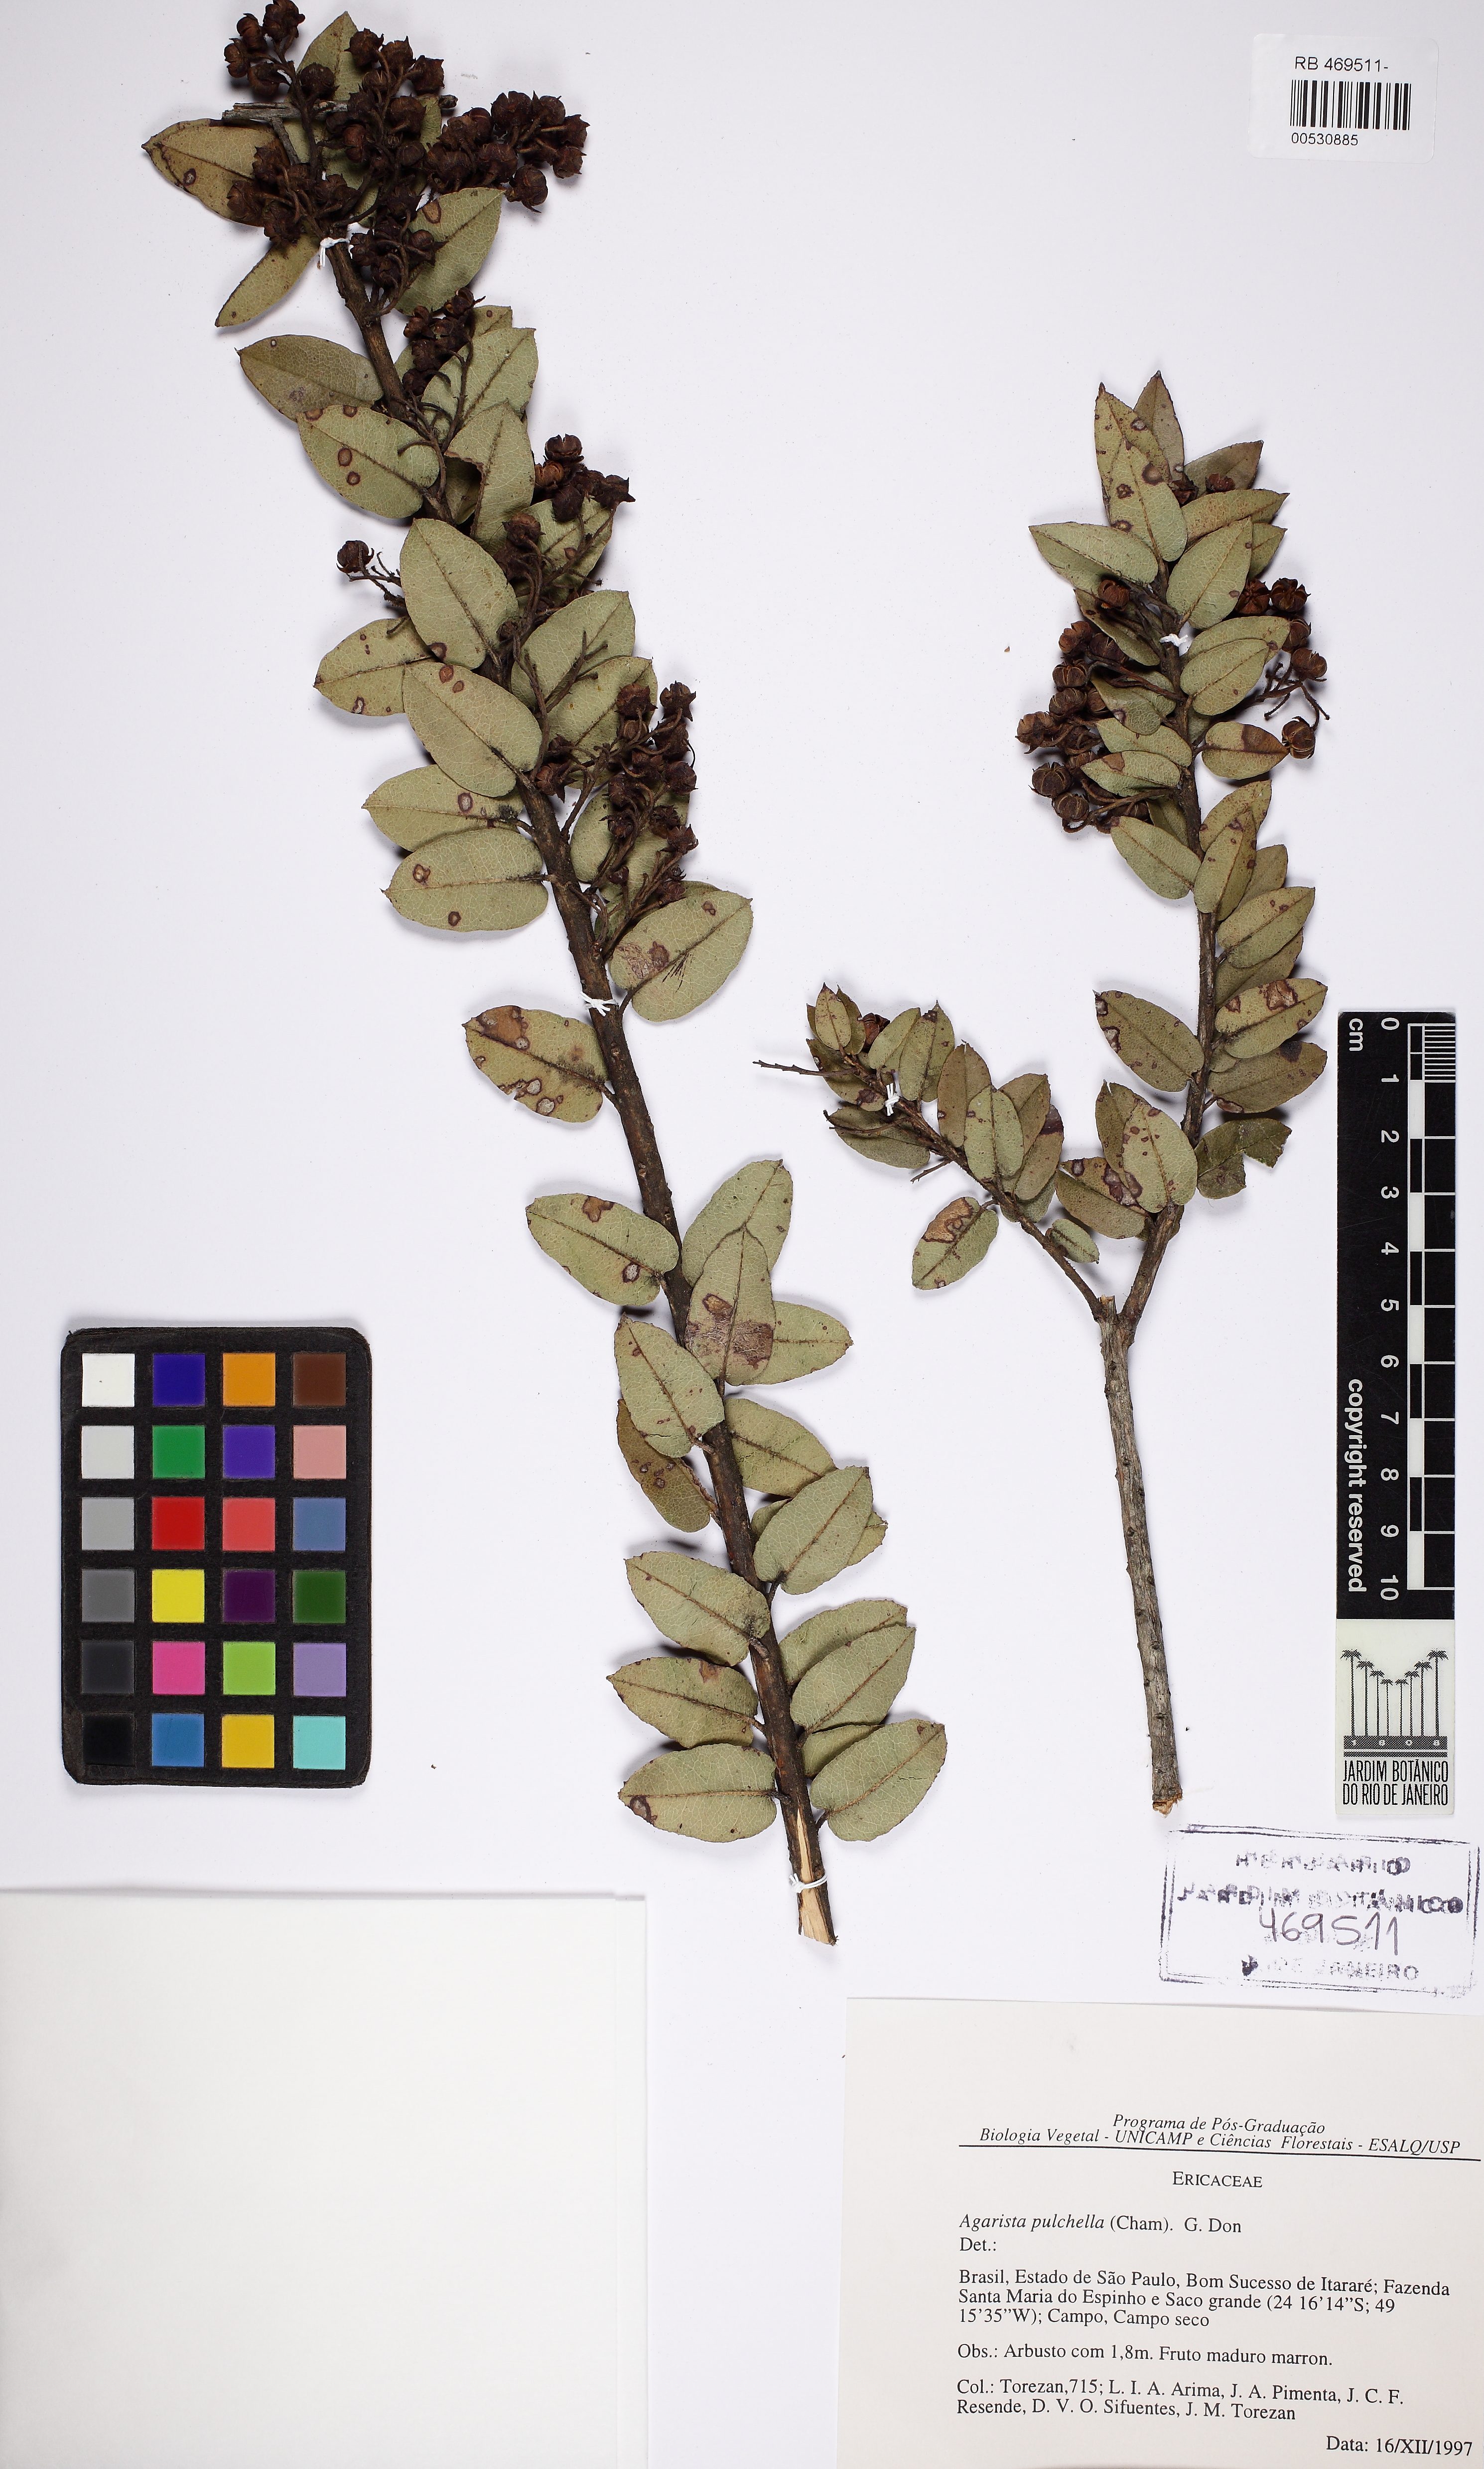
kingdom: Plantae
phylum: Tracheophyta
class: Magnoliopsida
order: Ericales
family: Ericaceae
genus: Agarista
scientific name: Agarista pulchella
